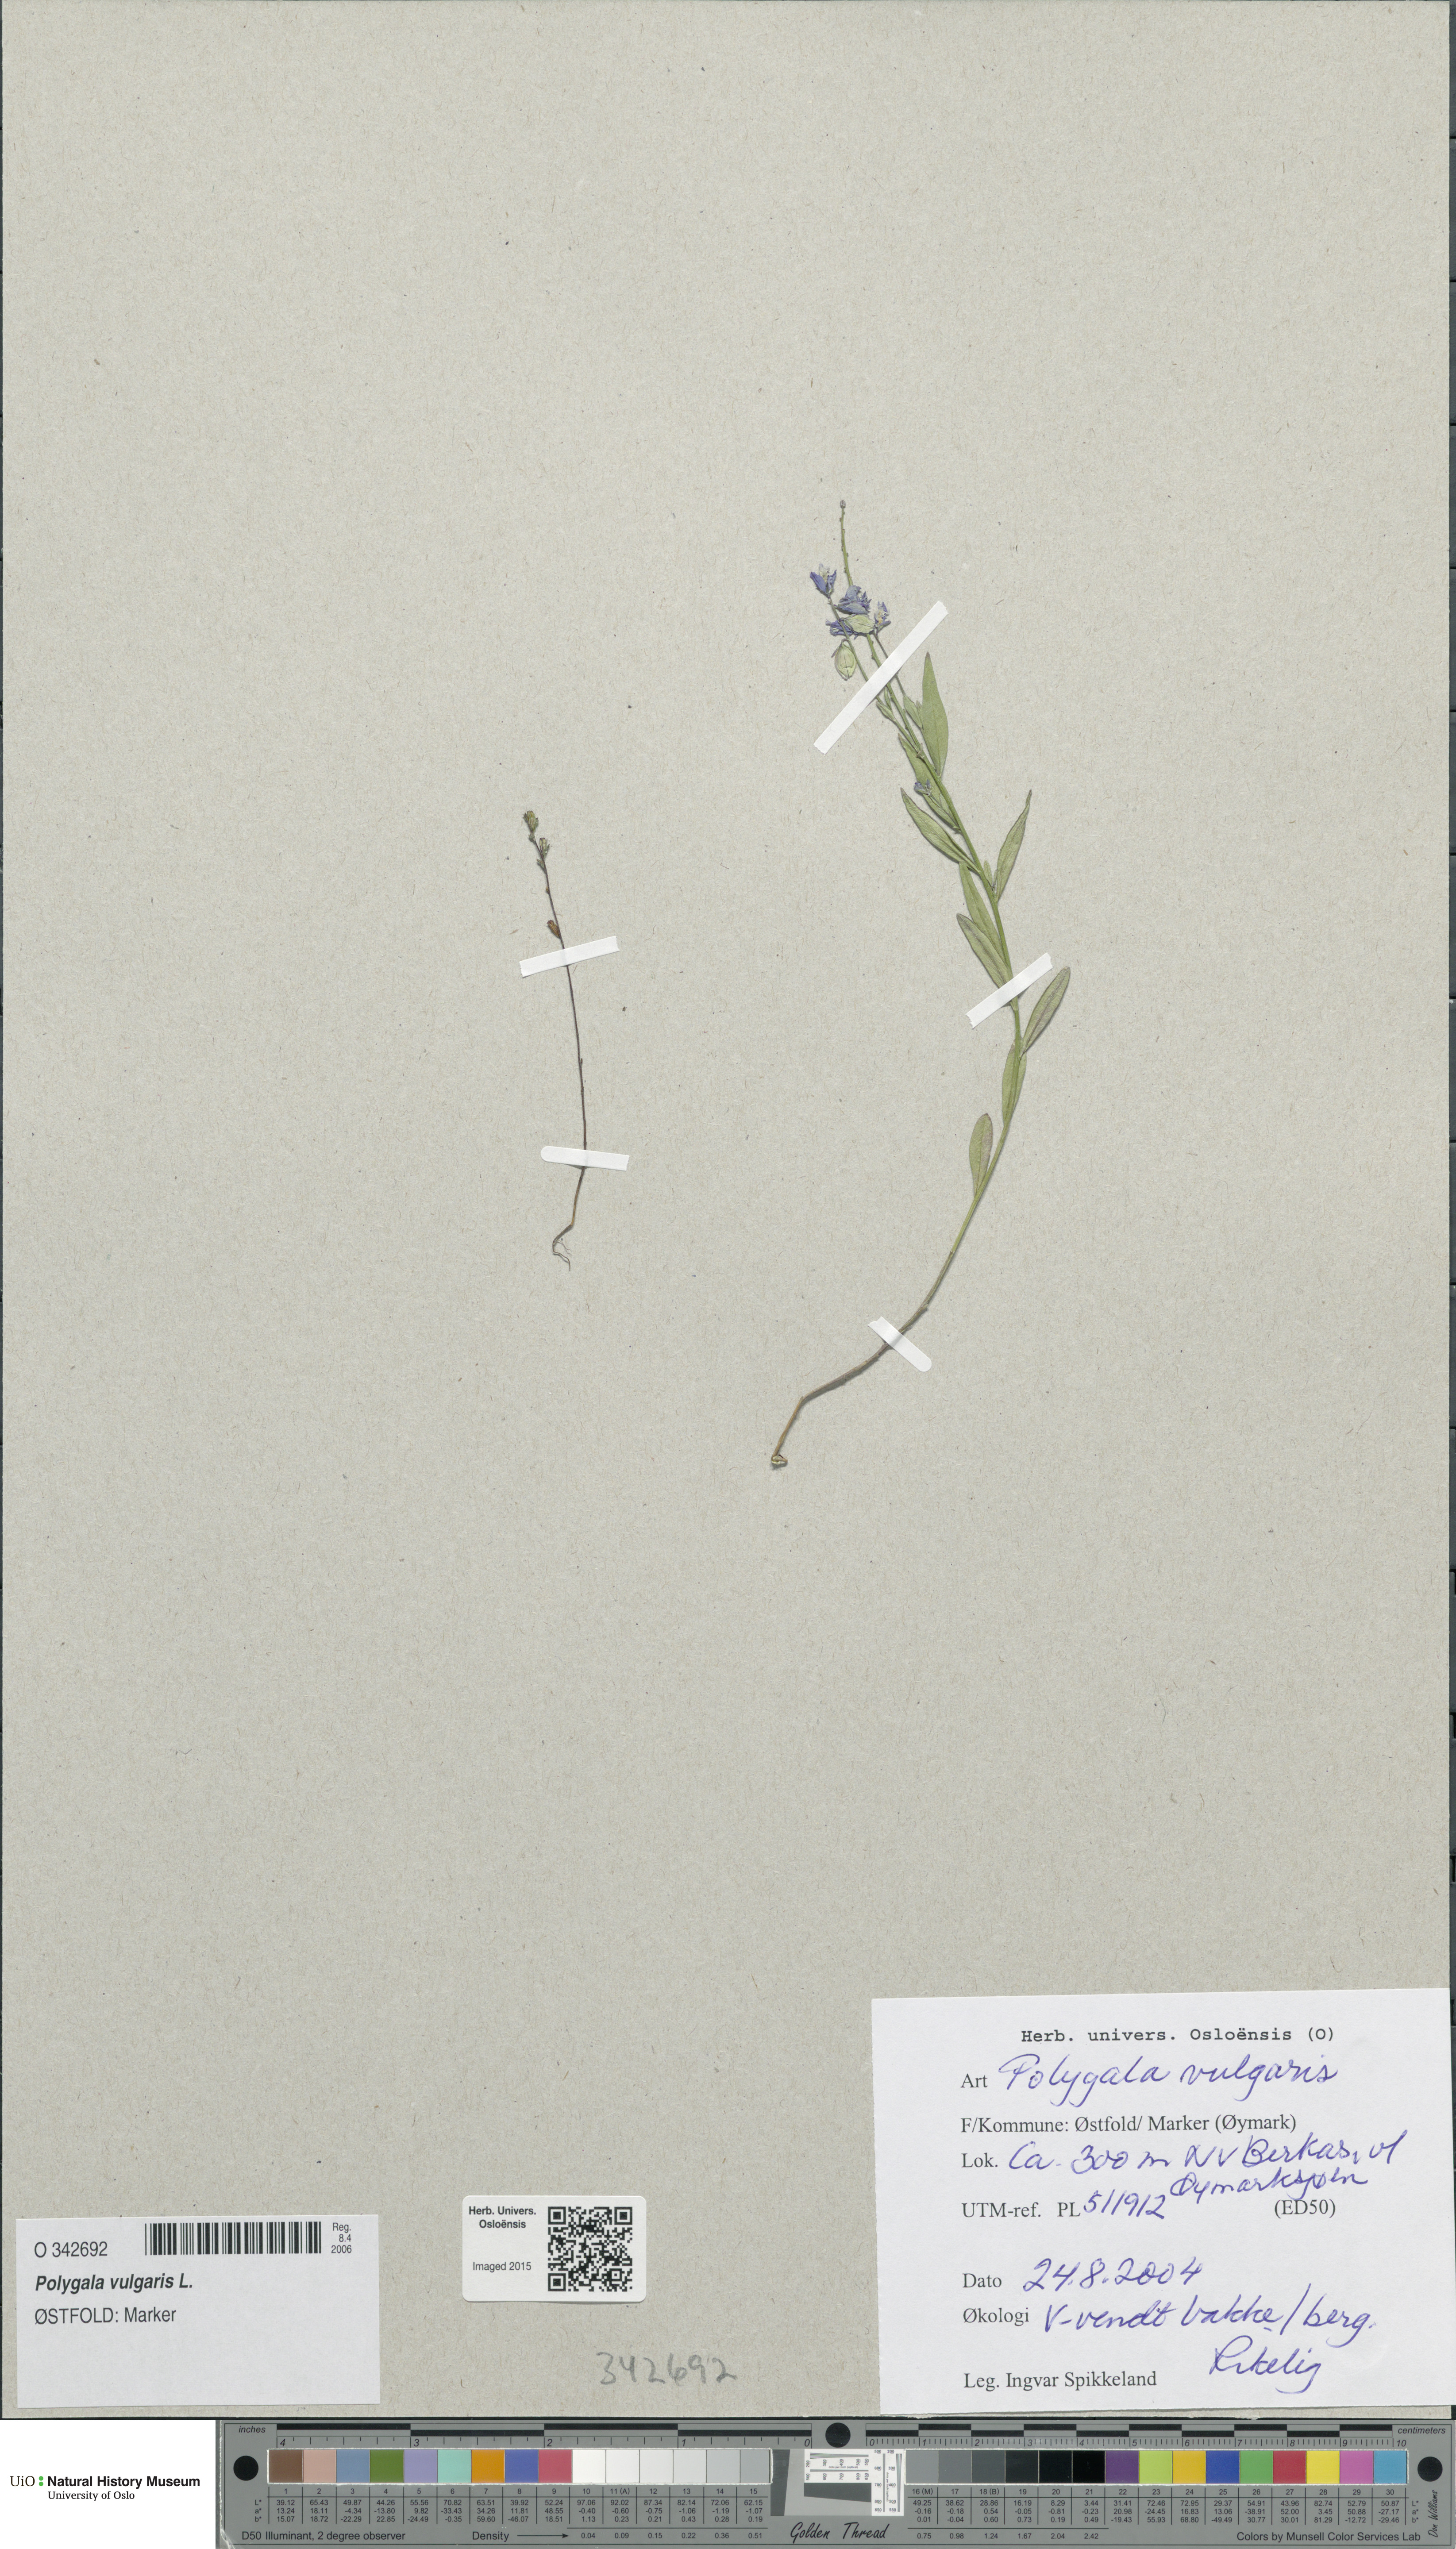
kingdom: Plantae
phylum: Tracheophyta
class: Magnoliopsida
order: Fabales
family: Polygalaceae
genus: Polygala
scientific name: Polygala vulgaris
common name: Common milkwort
